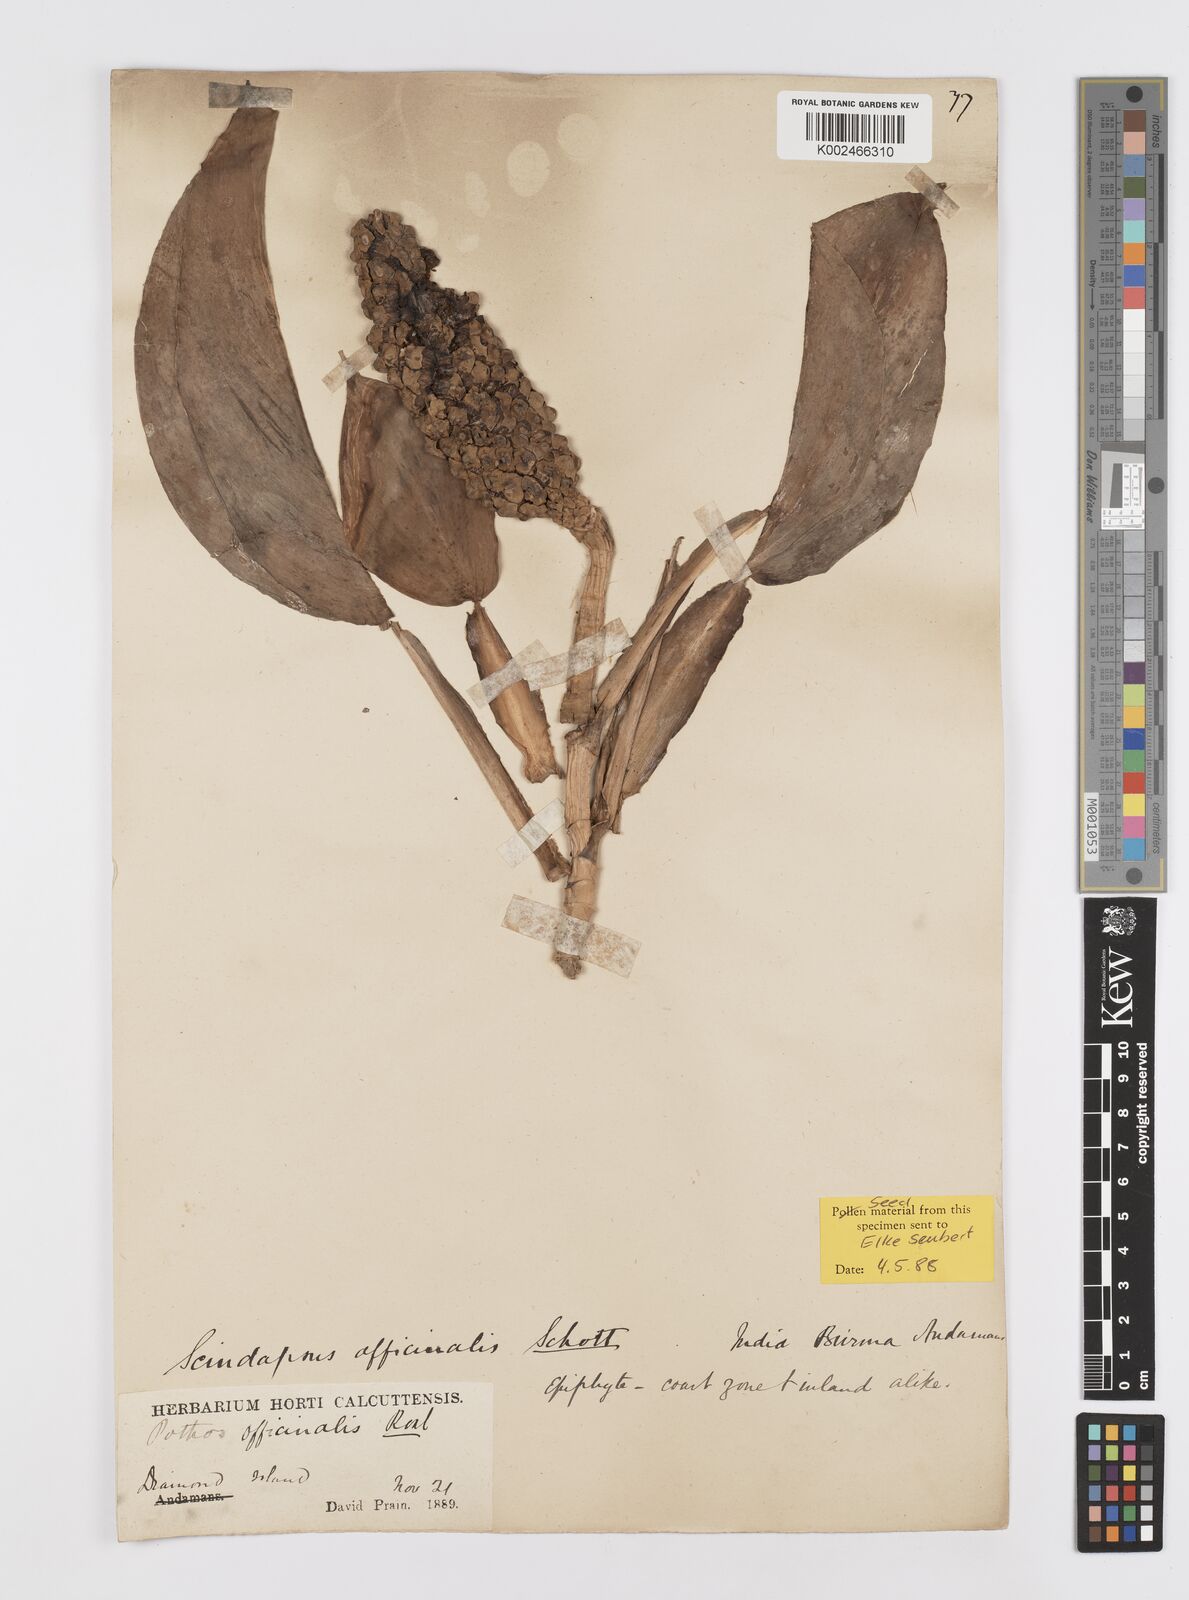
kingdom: Plantae
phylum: Tracheophyta
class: Liliopsida
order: Alismatales
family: Araceae
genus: Scindapsus
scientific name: Scindapsus officinalis
